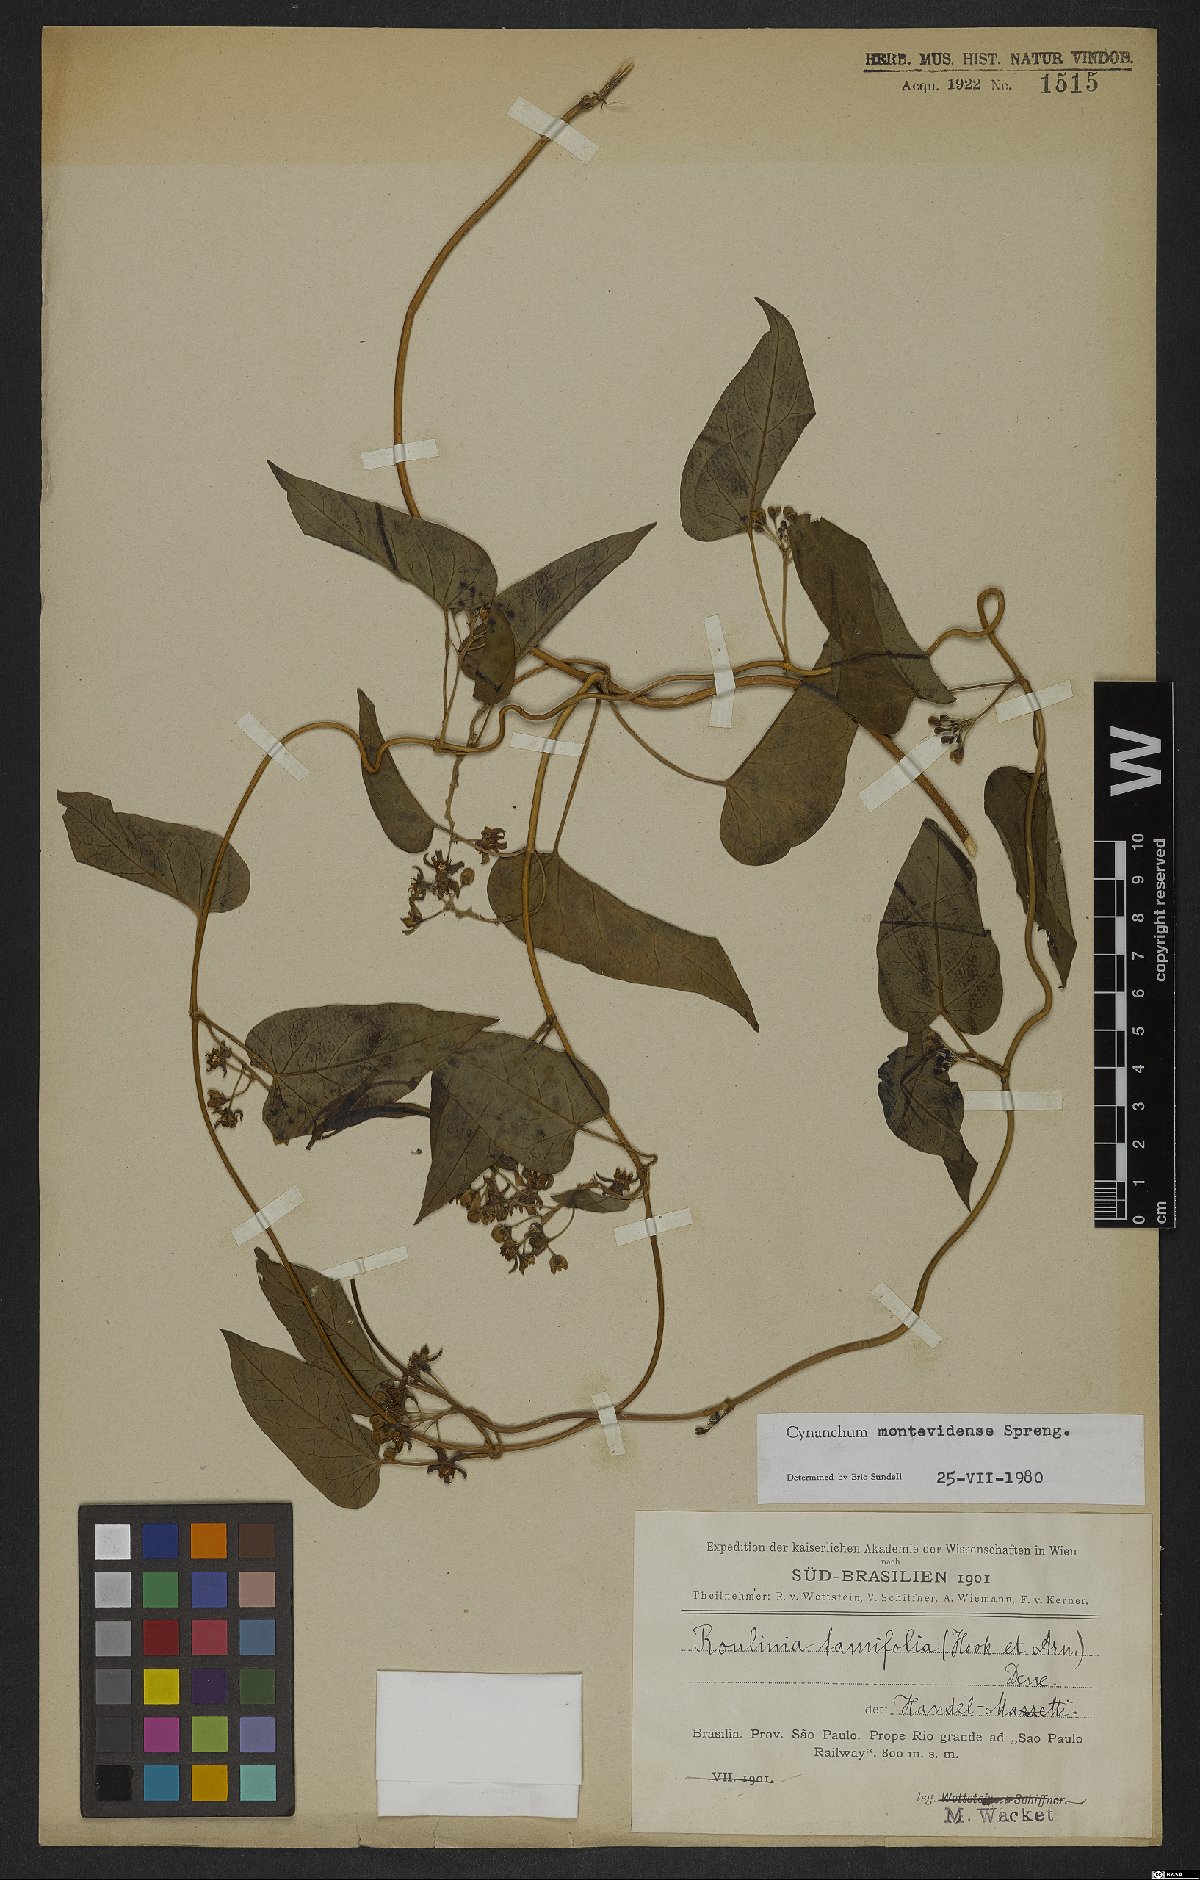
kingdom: Plantae
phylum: Tracheophyta
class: Magnoliopsida
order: Gentianales
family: Apocynaceae
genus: Cynanchum
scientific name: Cynanchum montevidense
